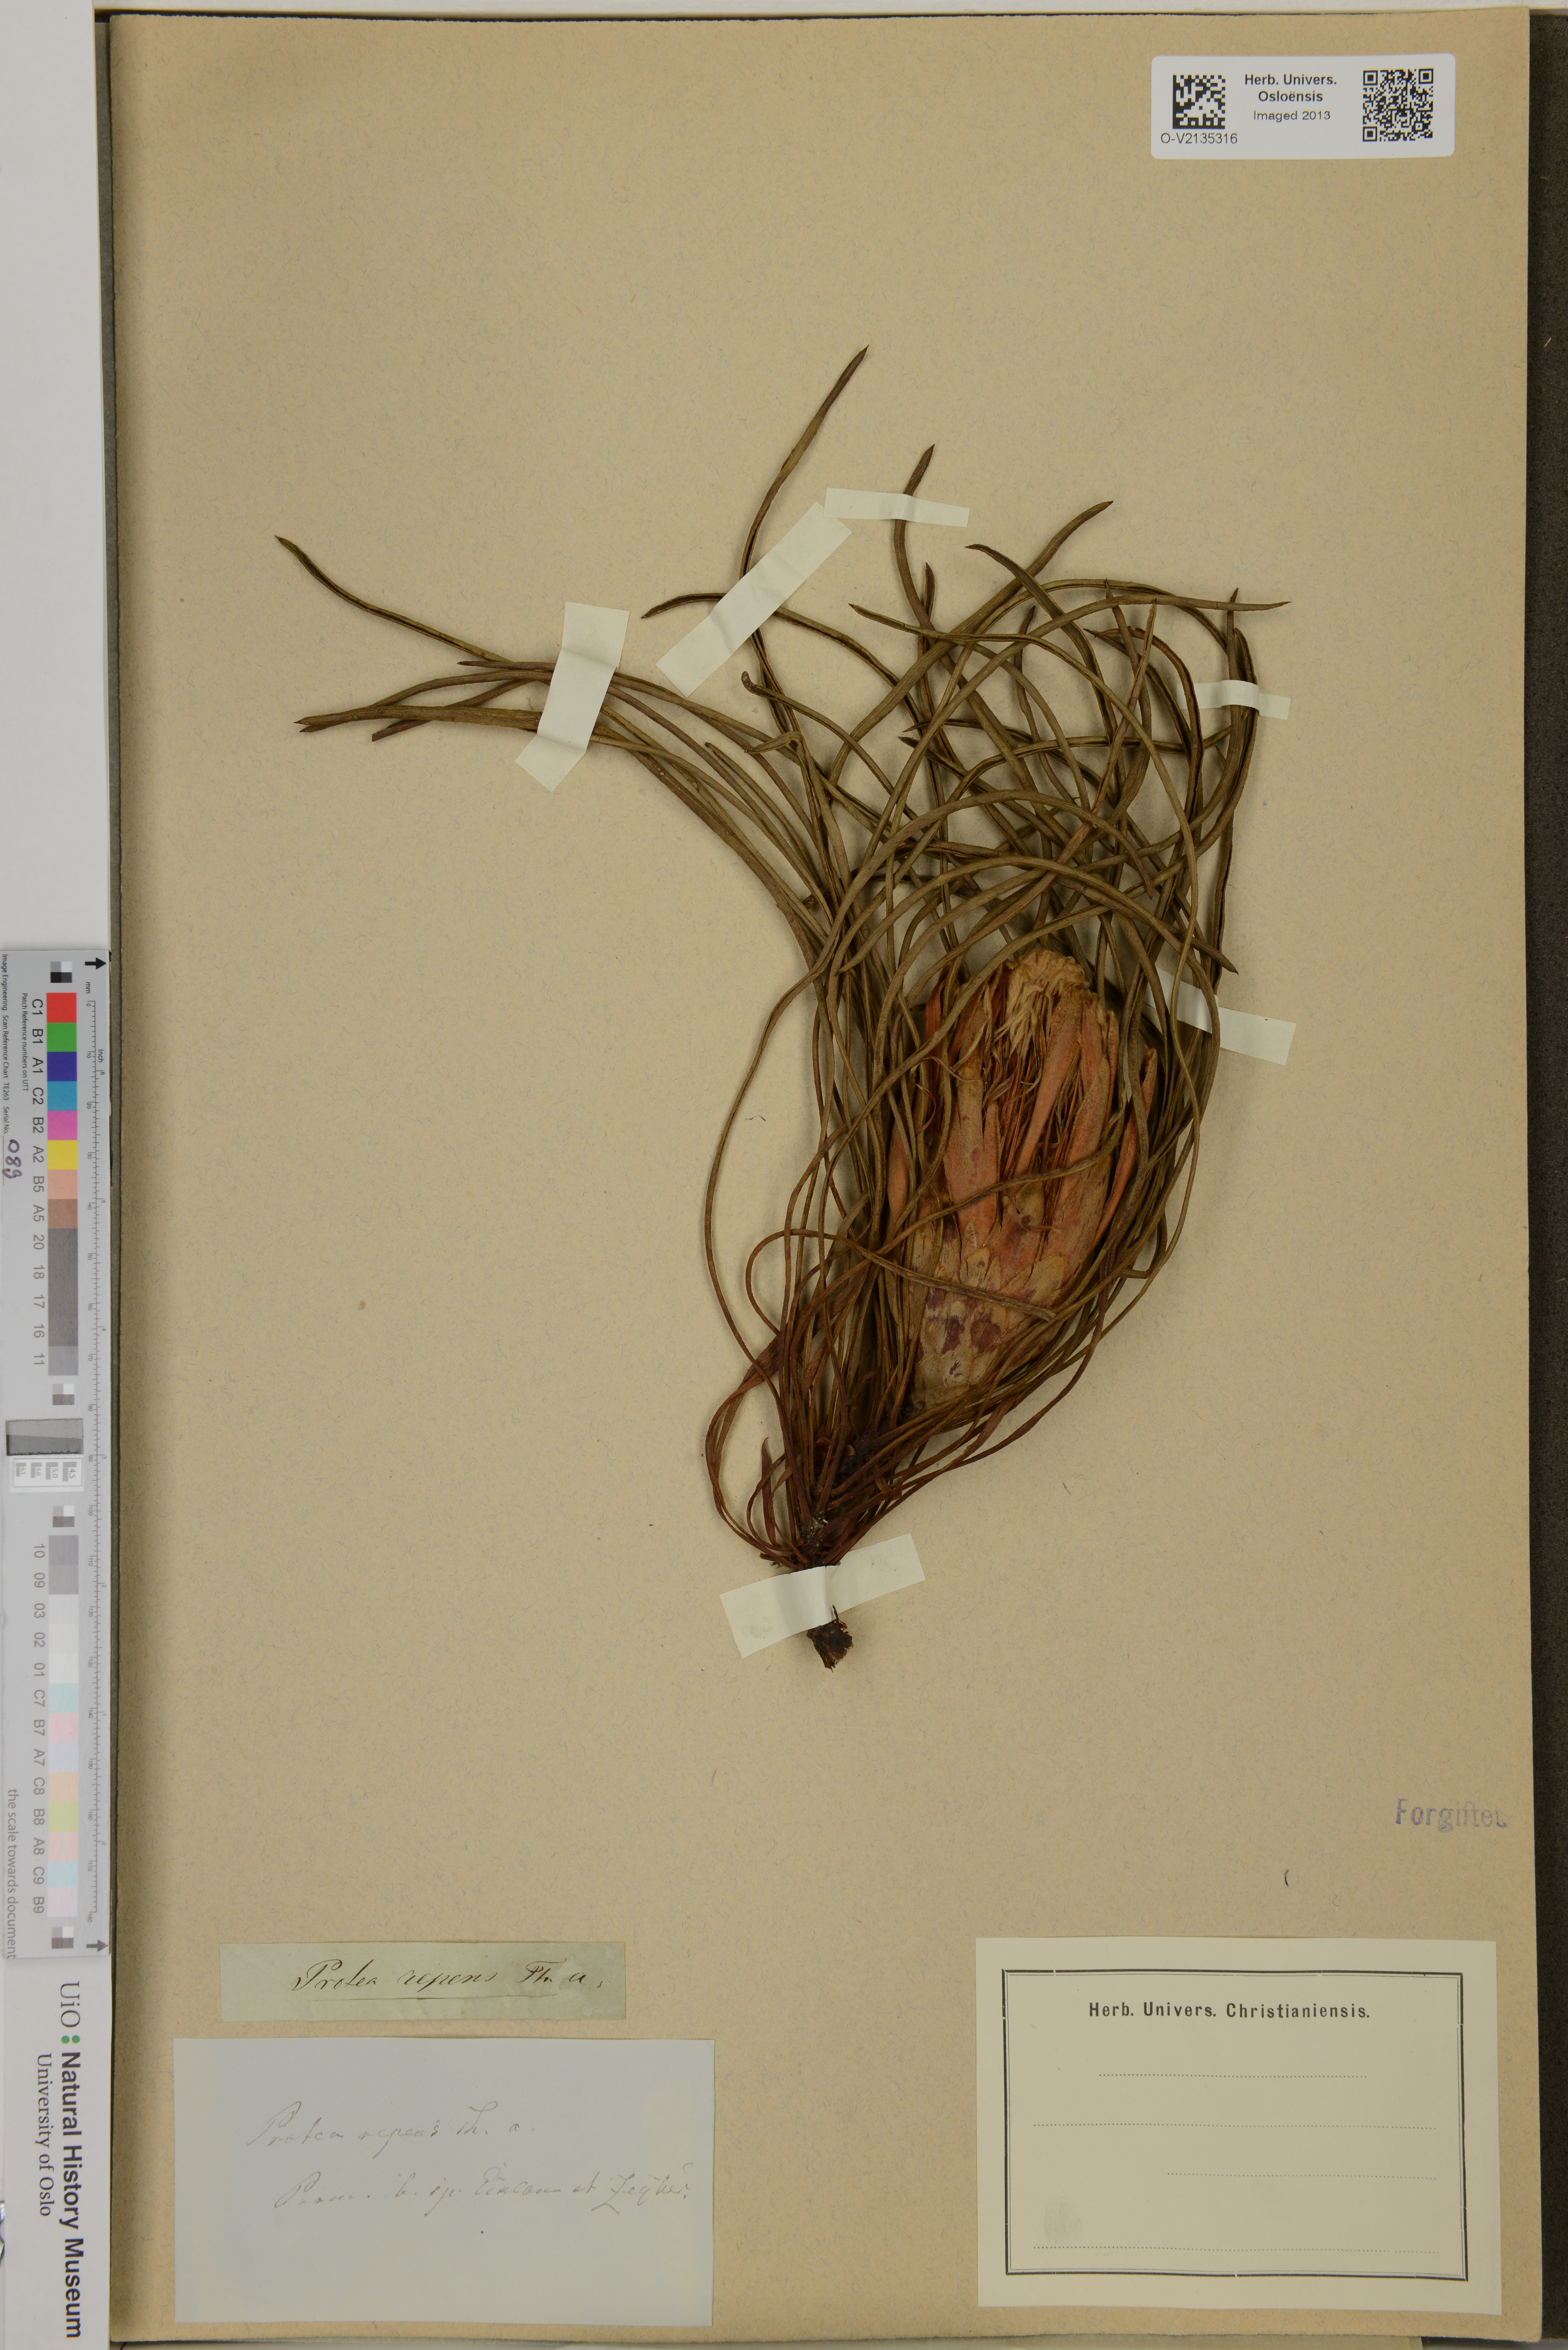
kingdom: Plantae
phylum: Tracheophyta
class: Magnoliopsida
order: Proteales
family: Proteaceae
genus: Protea
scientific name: Protea repens
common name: Sugarbush
